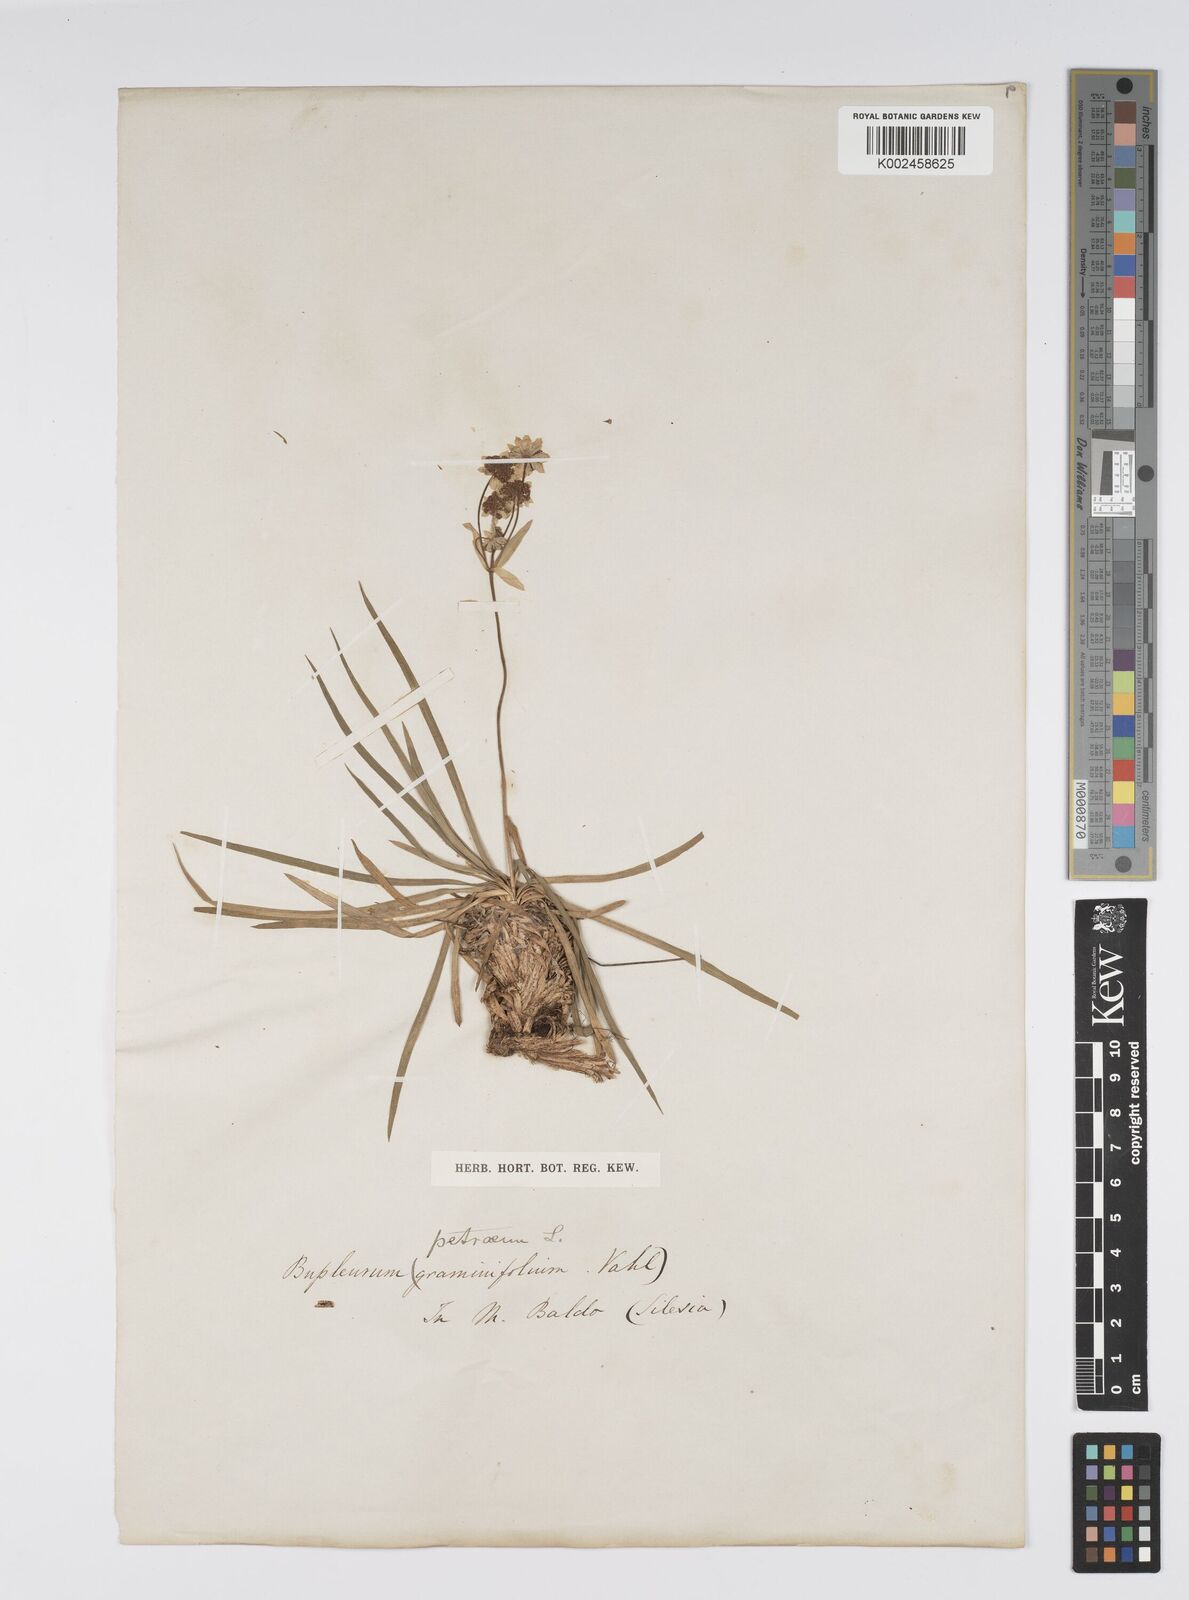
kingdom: Plantae
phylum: Tracheophyta
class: Magnoliopsida
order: Apiales
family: Apiaceae
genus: Bupleurum
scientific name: Bupleurum petraeum
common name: Rock hare's-ear
